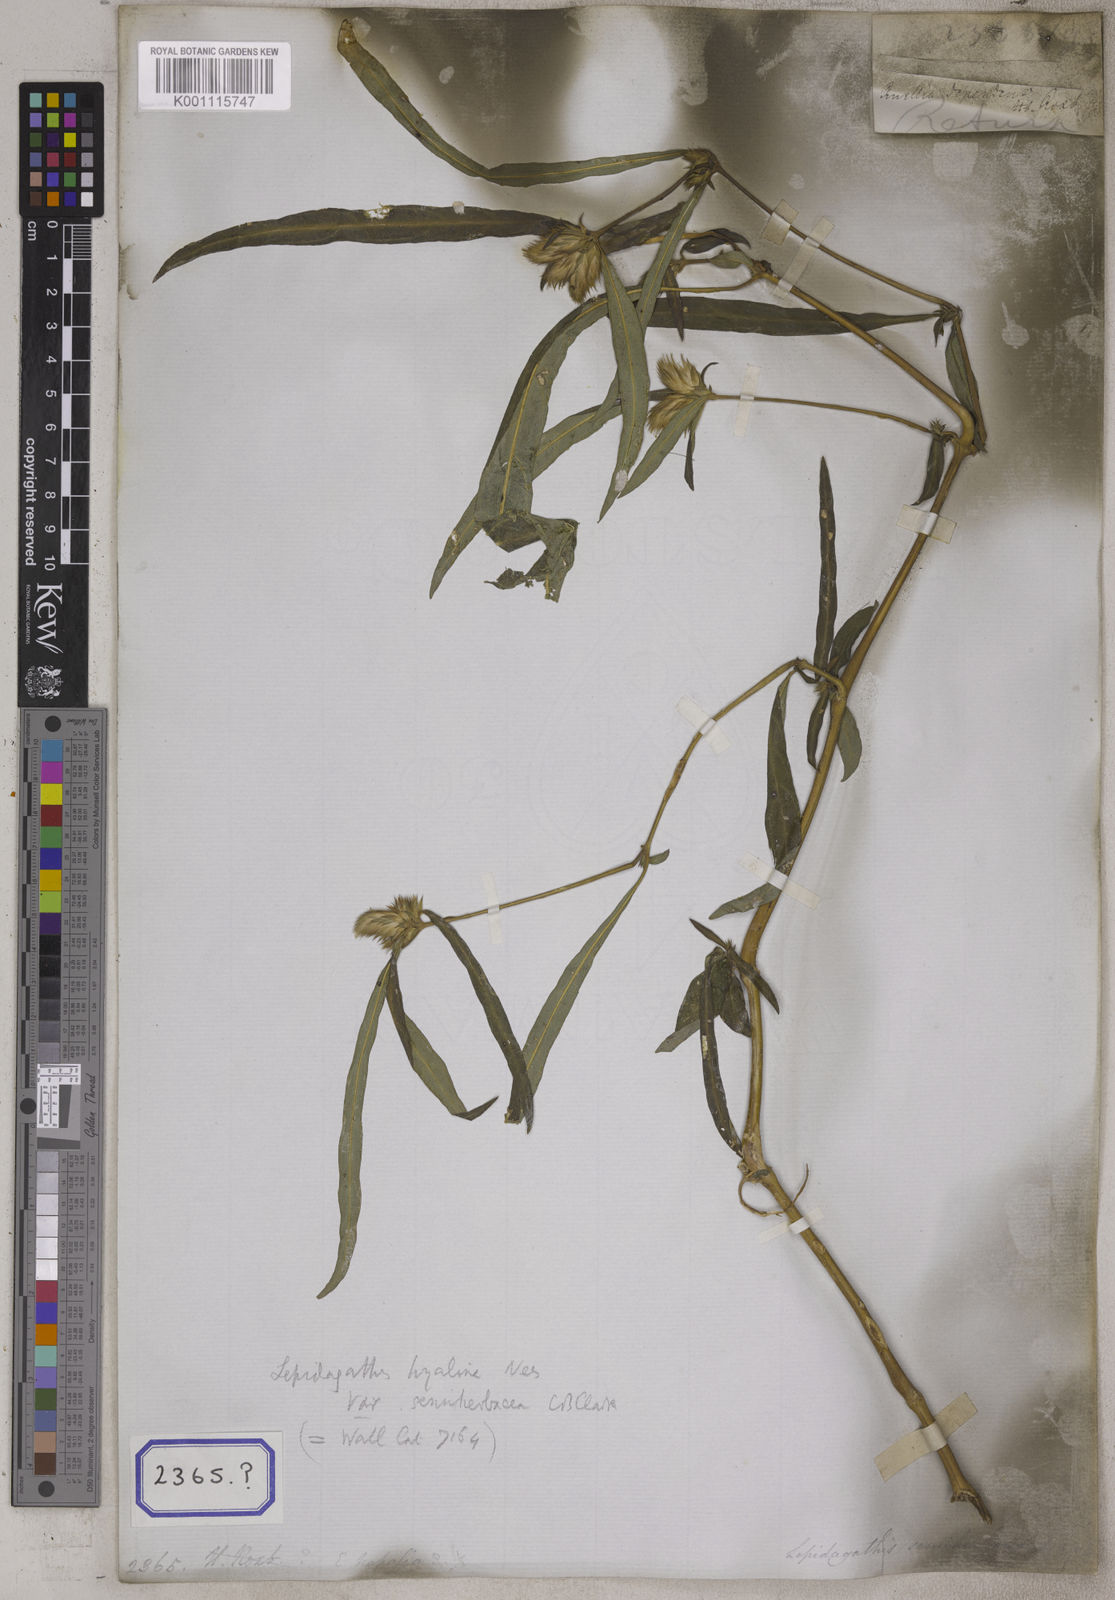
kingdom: Plantae
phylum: Tracheophyta
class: Magnoliopsida
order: Lamiales
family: Acanthaceae
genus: Lepidagathis
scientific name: Lepidagathis incurva
